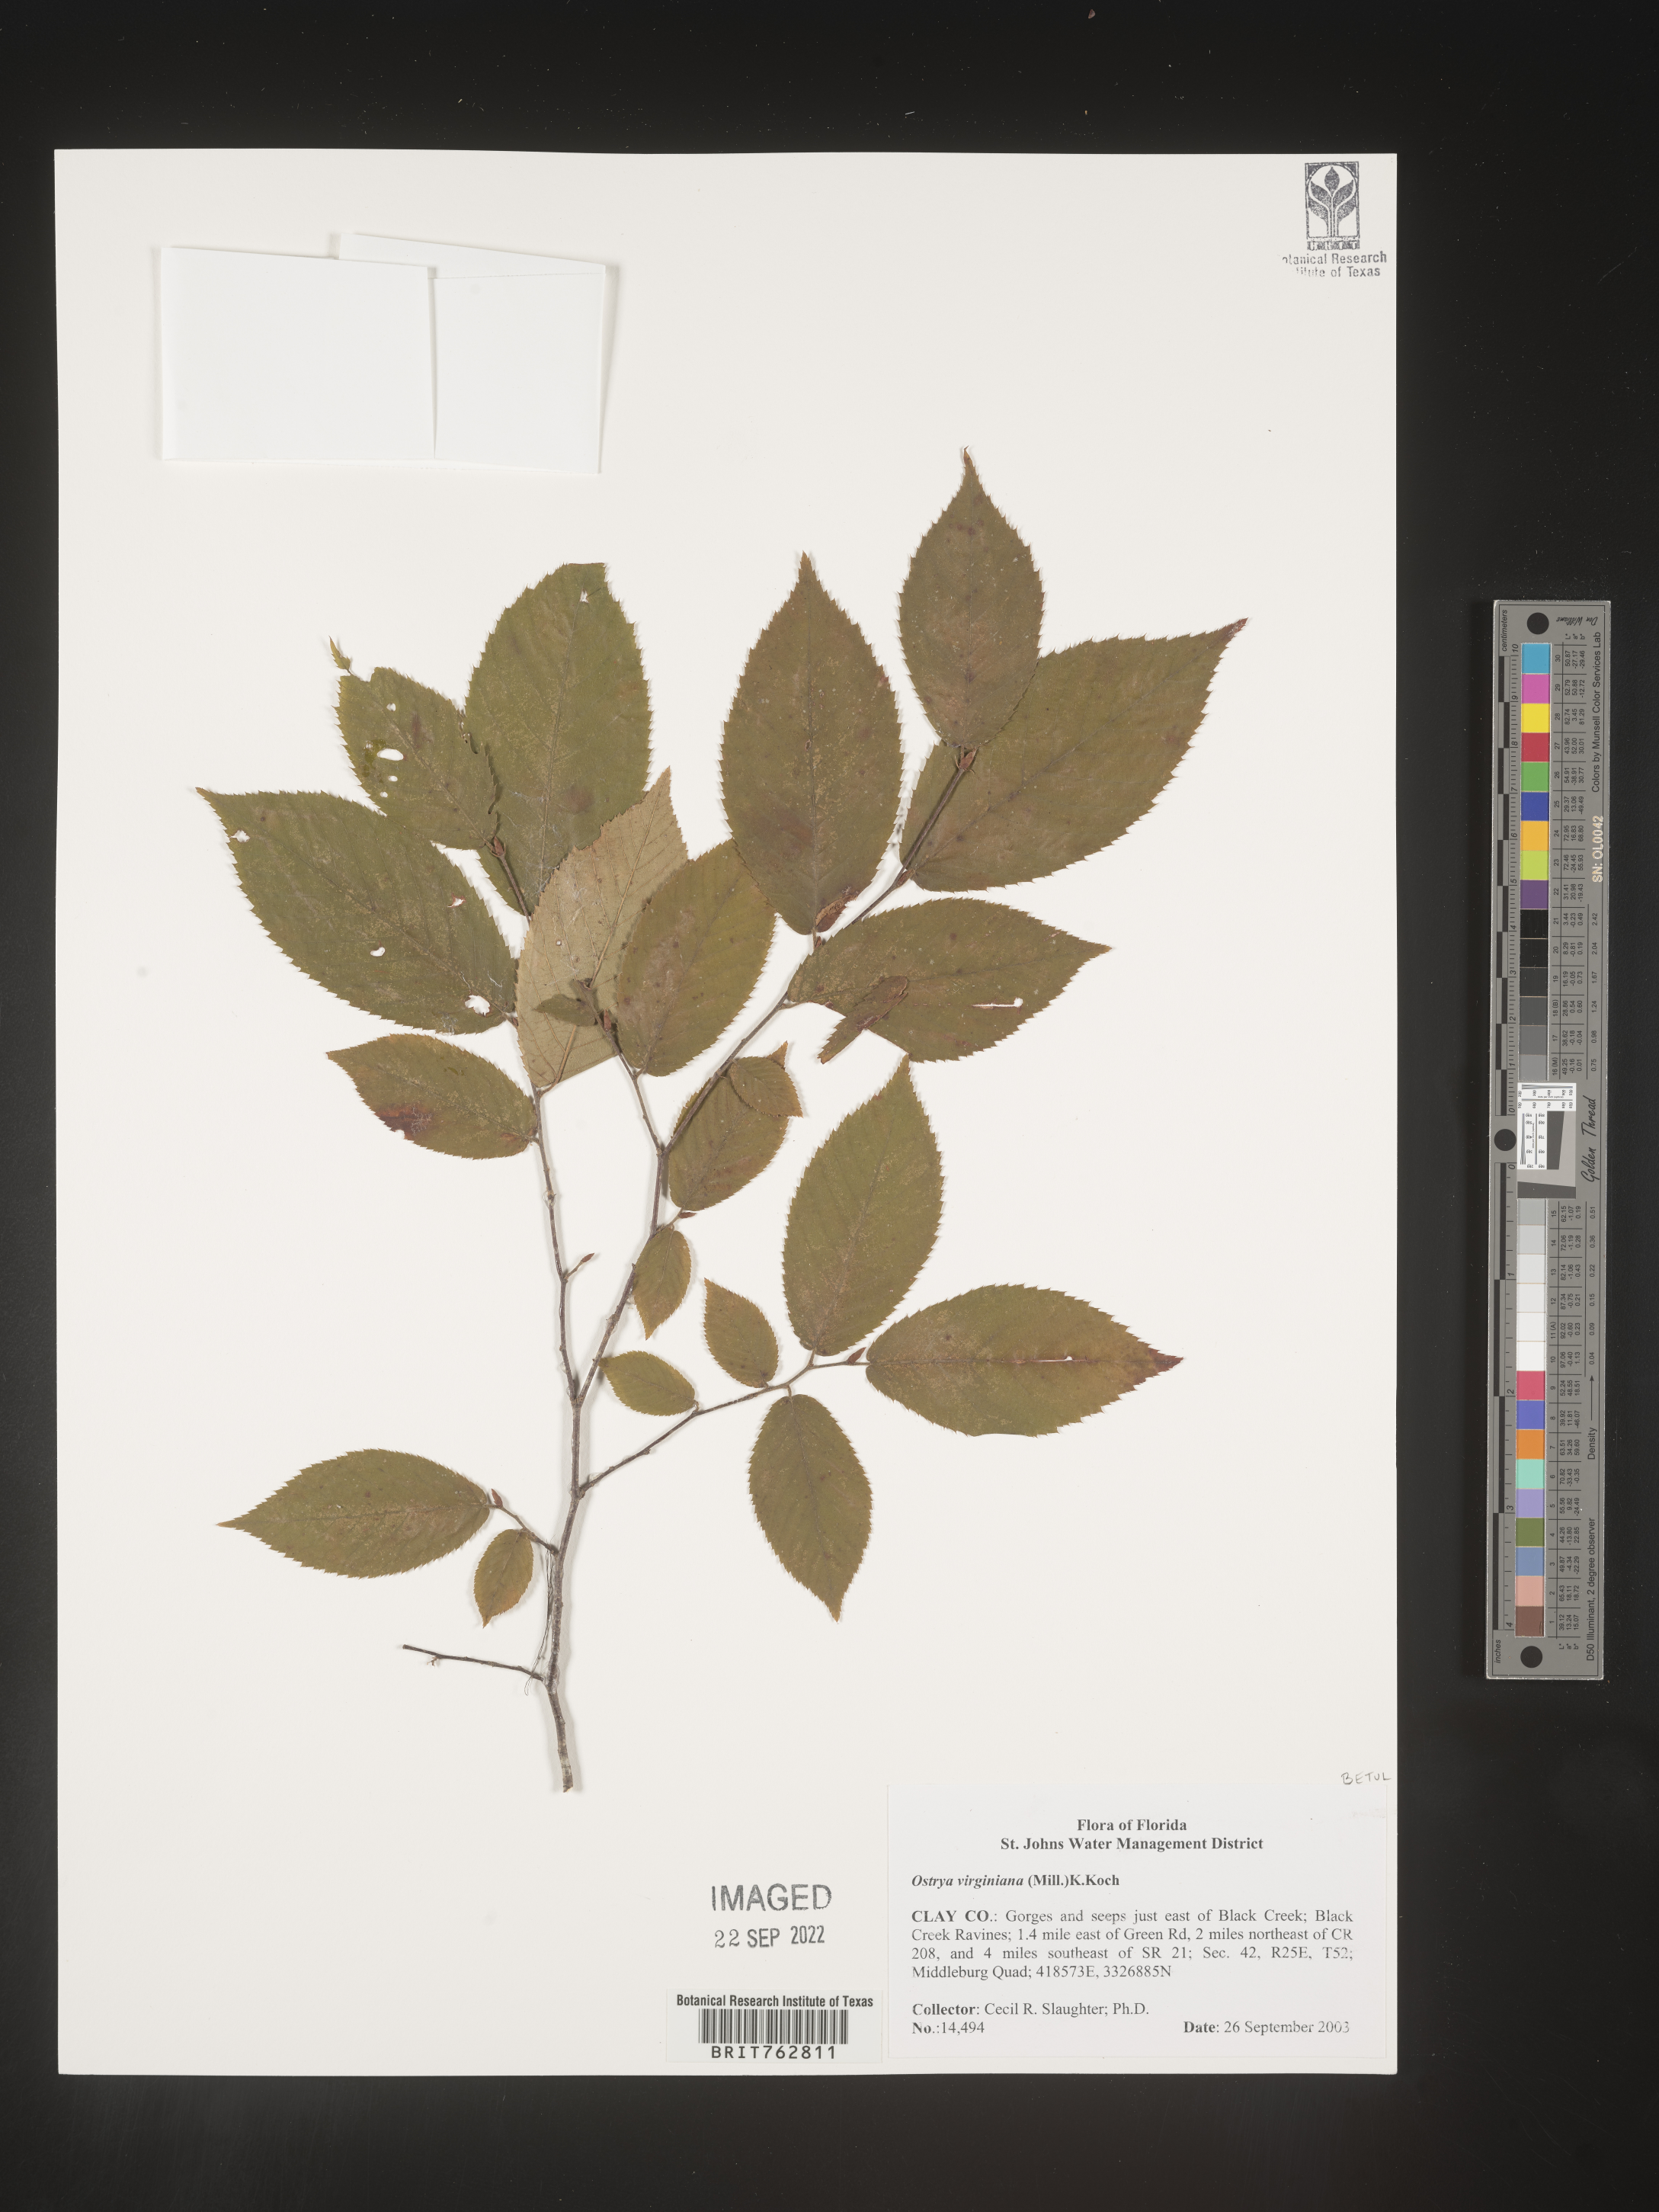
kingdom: Plantae
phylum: Tracheophyta
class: Magnoliopsida
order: Fagales
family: Betulaceae
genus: Ostrya
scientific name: Ostrya virginiana
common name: Ironwood
